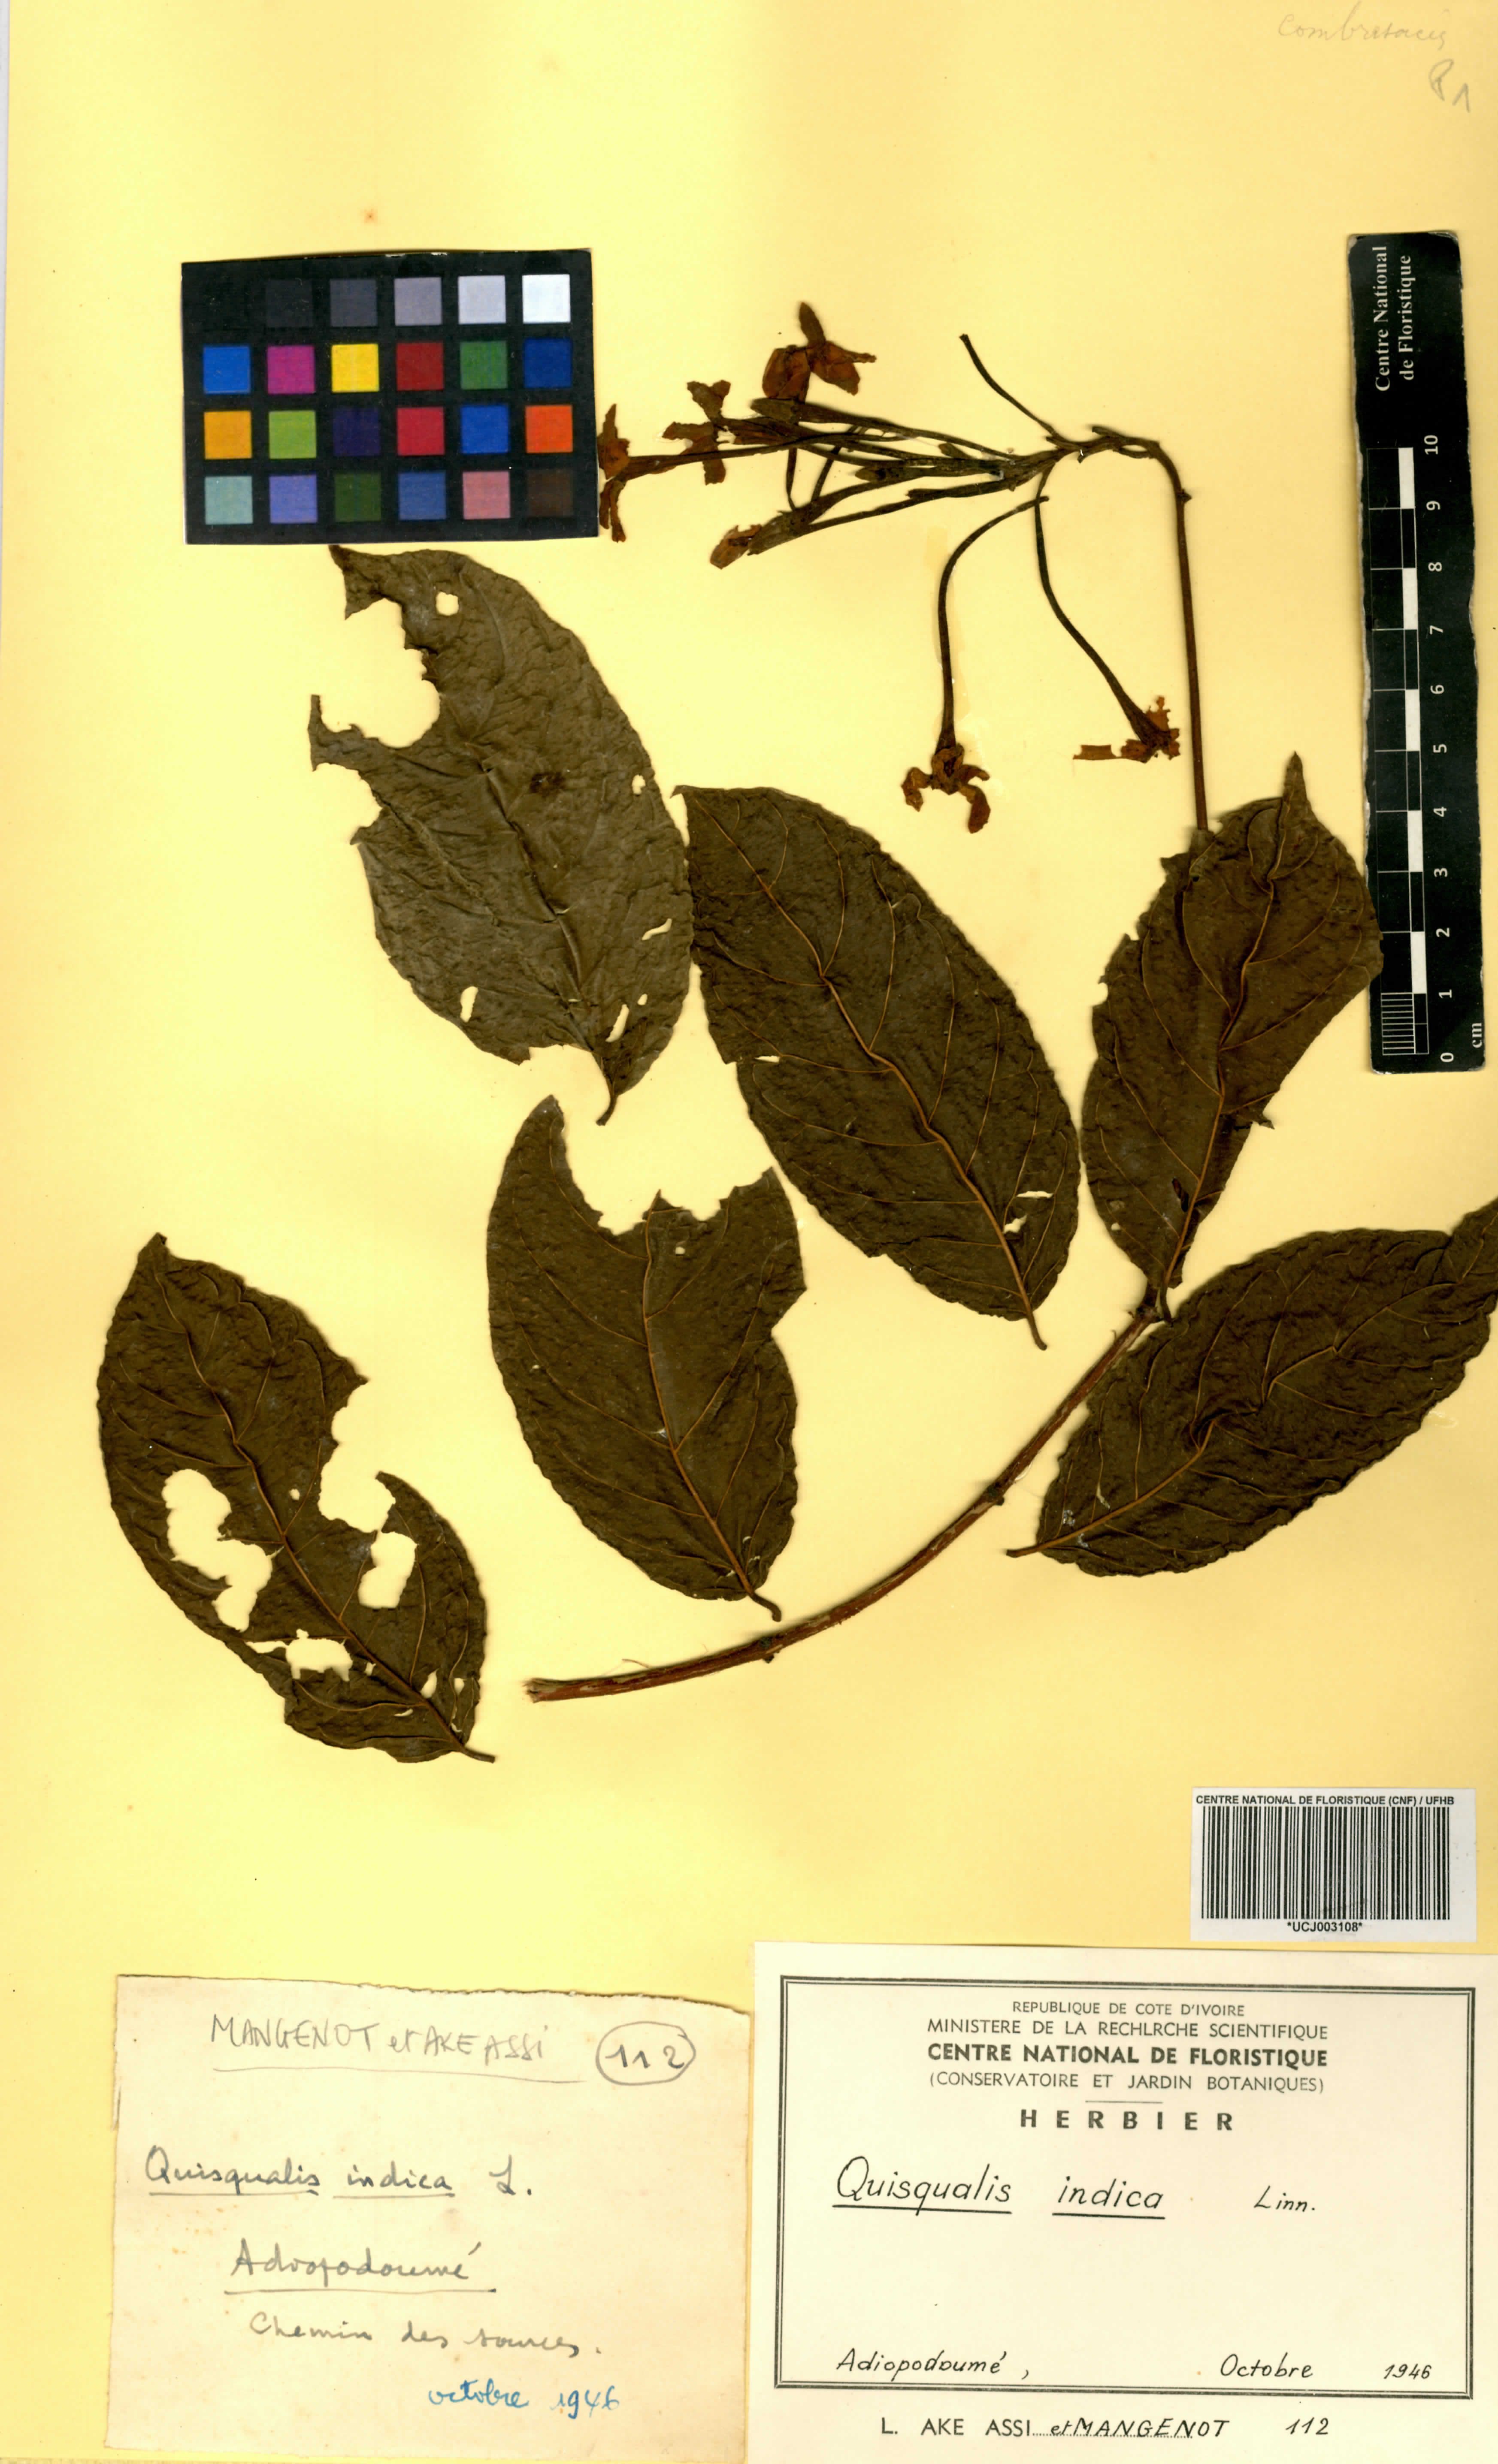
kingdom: Plantae
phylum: Tracheophyta
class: Magnoliopsida
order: Myrtales
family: Combretaceae
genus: Combretum
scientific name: Combretum indicum
